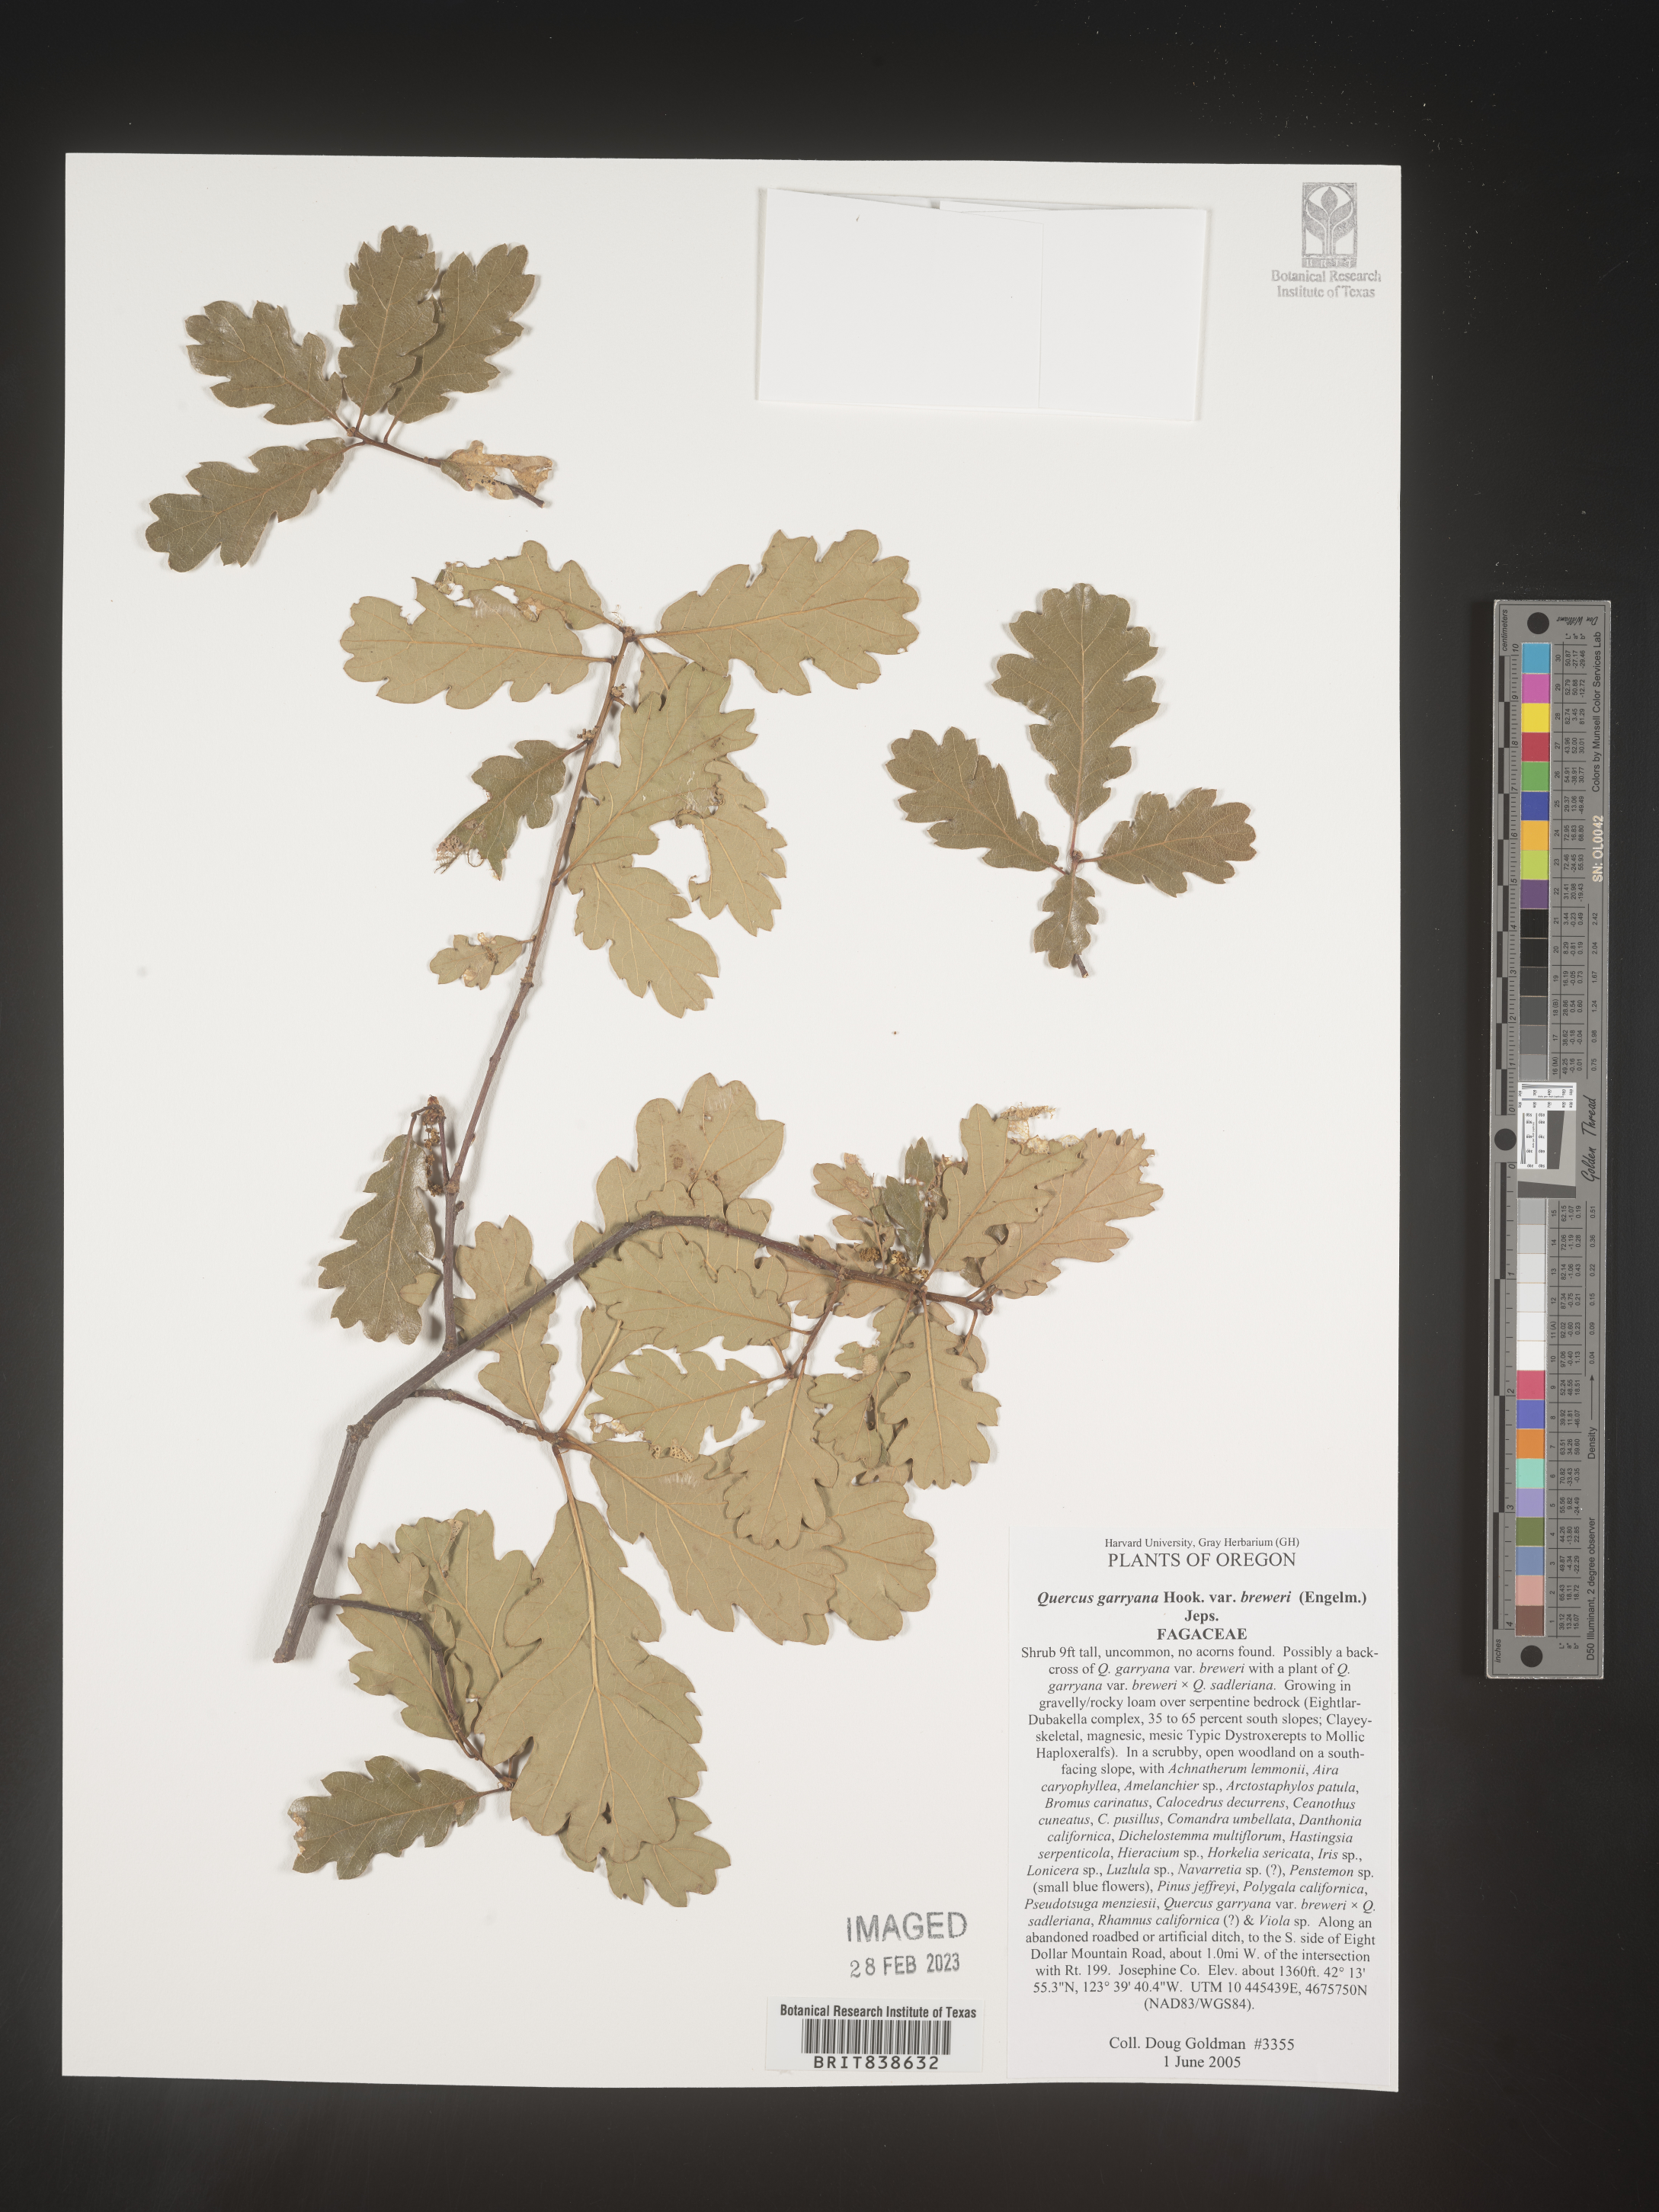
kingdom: Plantae
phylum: Tracheophyta
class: Magnoliopsida
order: Fagales
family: Fagaceae
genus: Quercus
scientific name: Quercus garryana
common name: Garry oak
